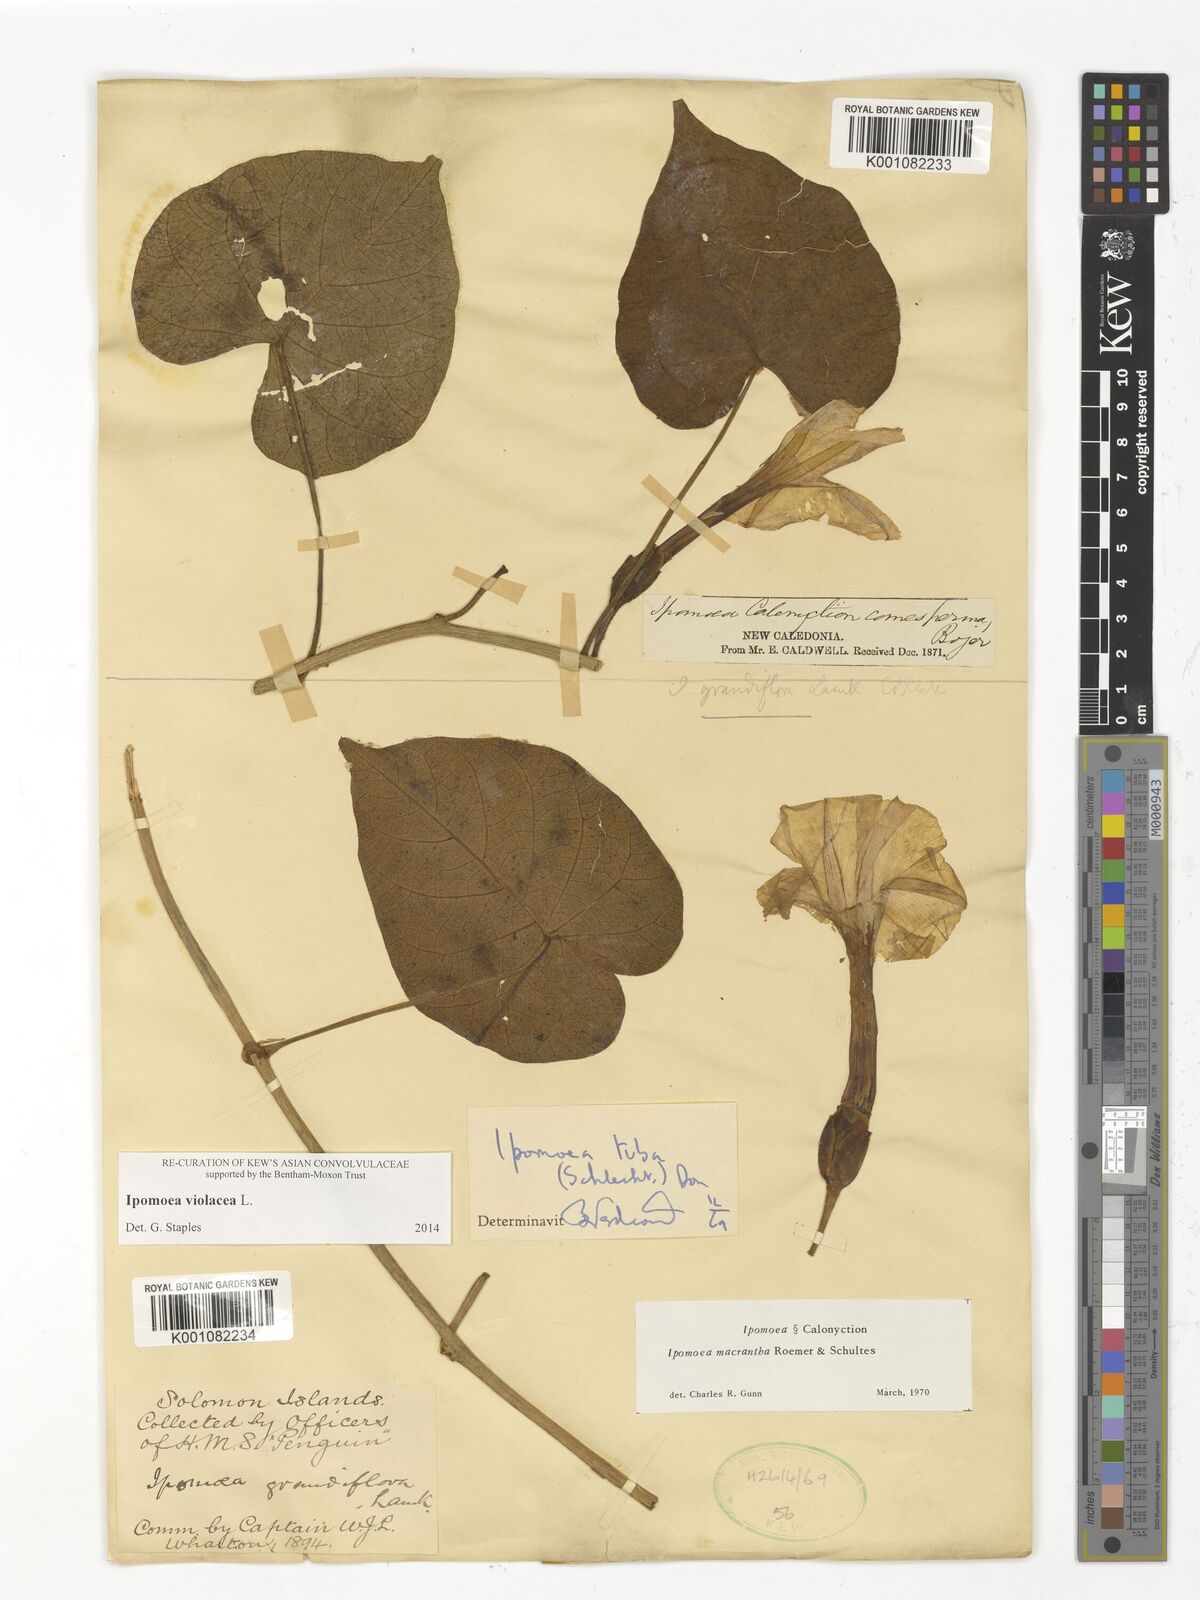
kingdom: Plantae
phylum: Tracheophyta
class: Magnoliopsida
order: Solanales
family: Convolvulaceae
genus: Ipomoea
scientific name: Ipomoea violacea
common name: Beach moonflower
